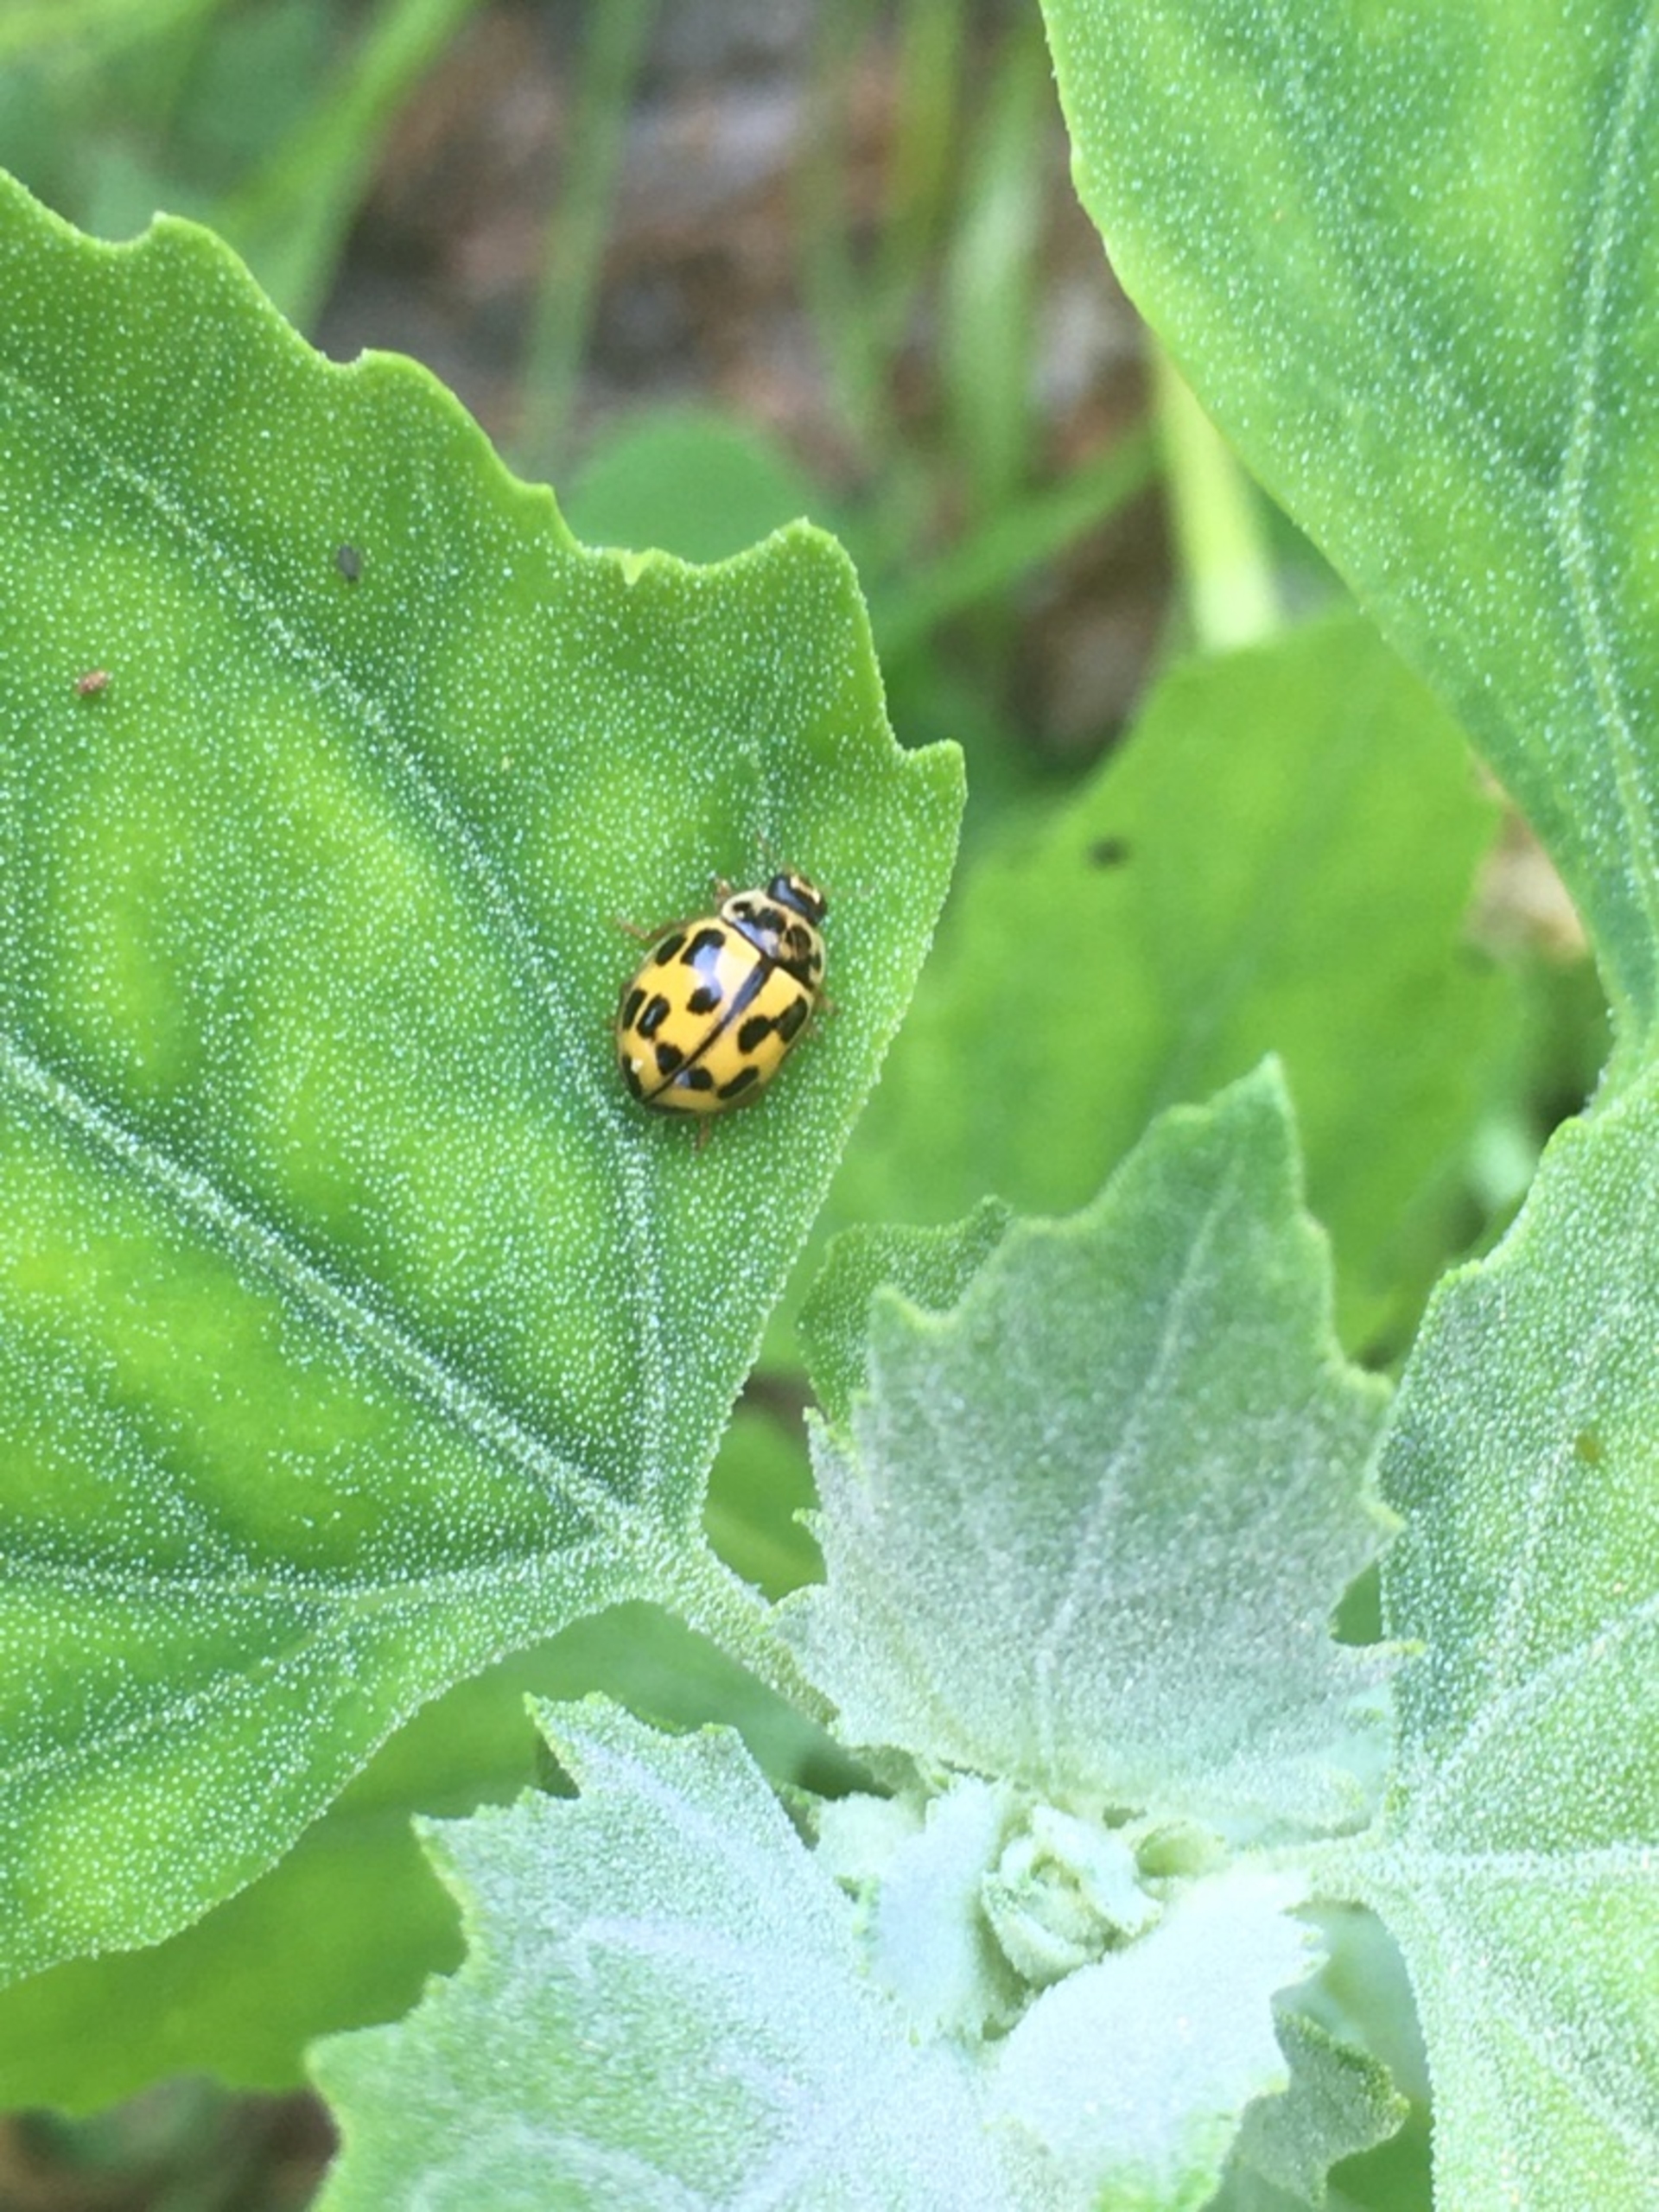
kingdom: Animalia
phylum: Arthropoda
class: Insecta
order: Coleoptera
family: Coccinellidae
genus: Propylaea
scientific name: Propylaea quatuordecimpunctata
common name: Skakbræt
